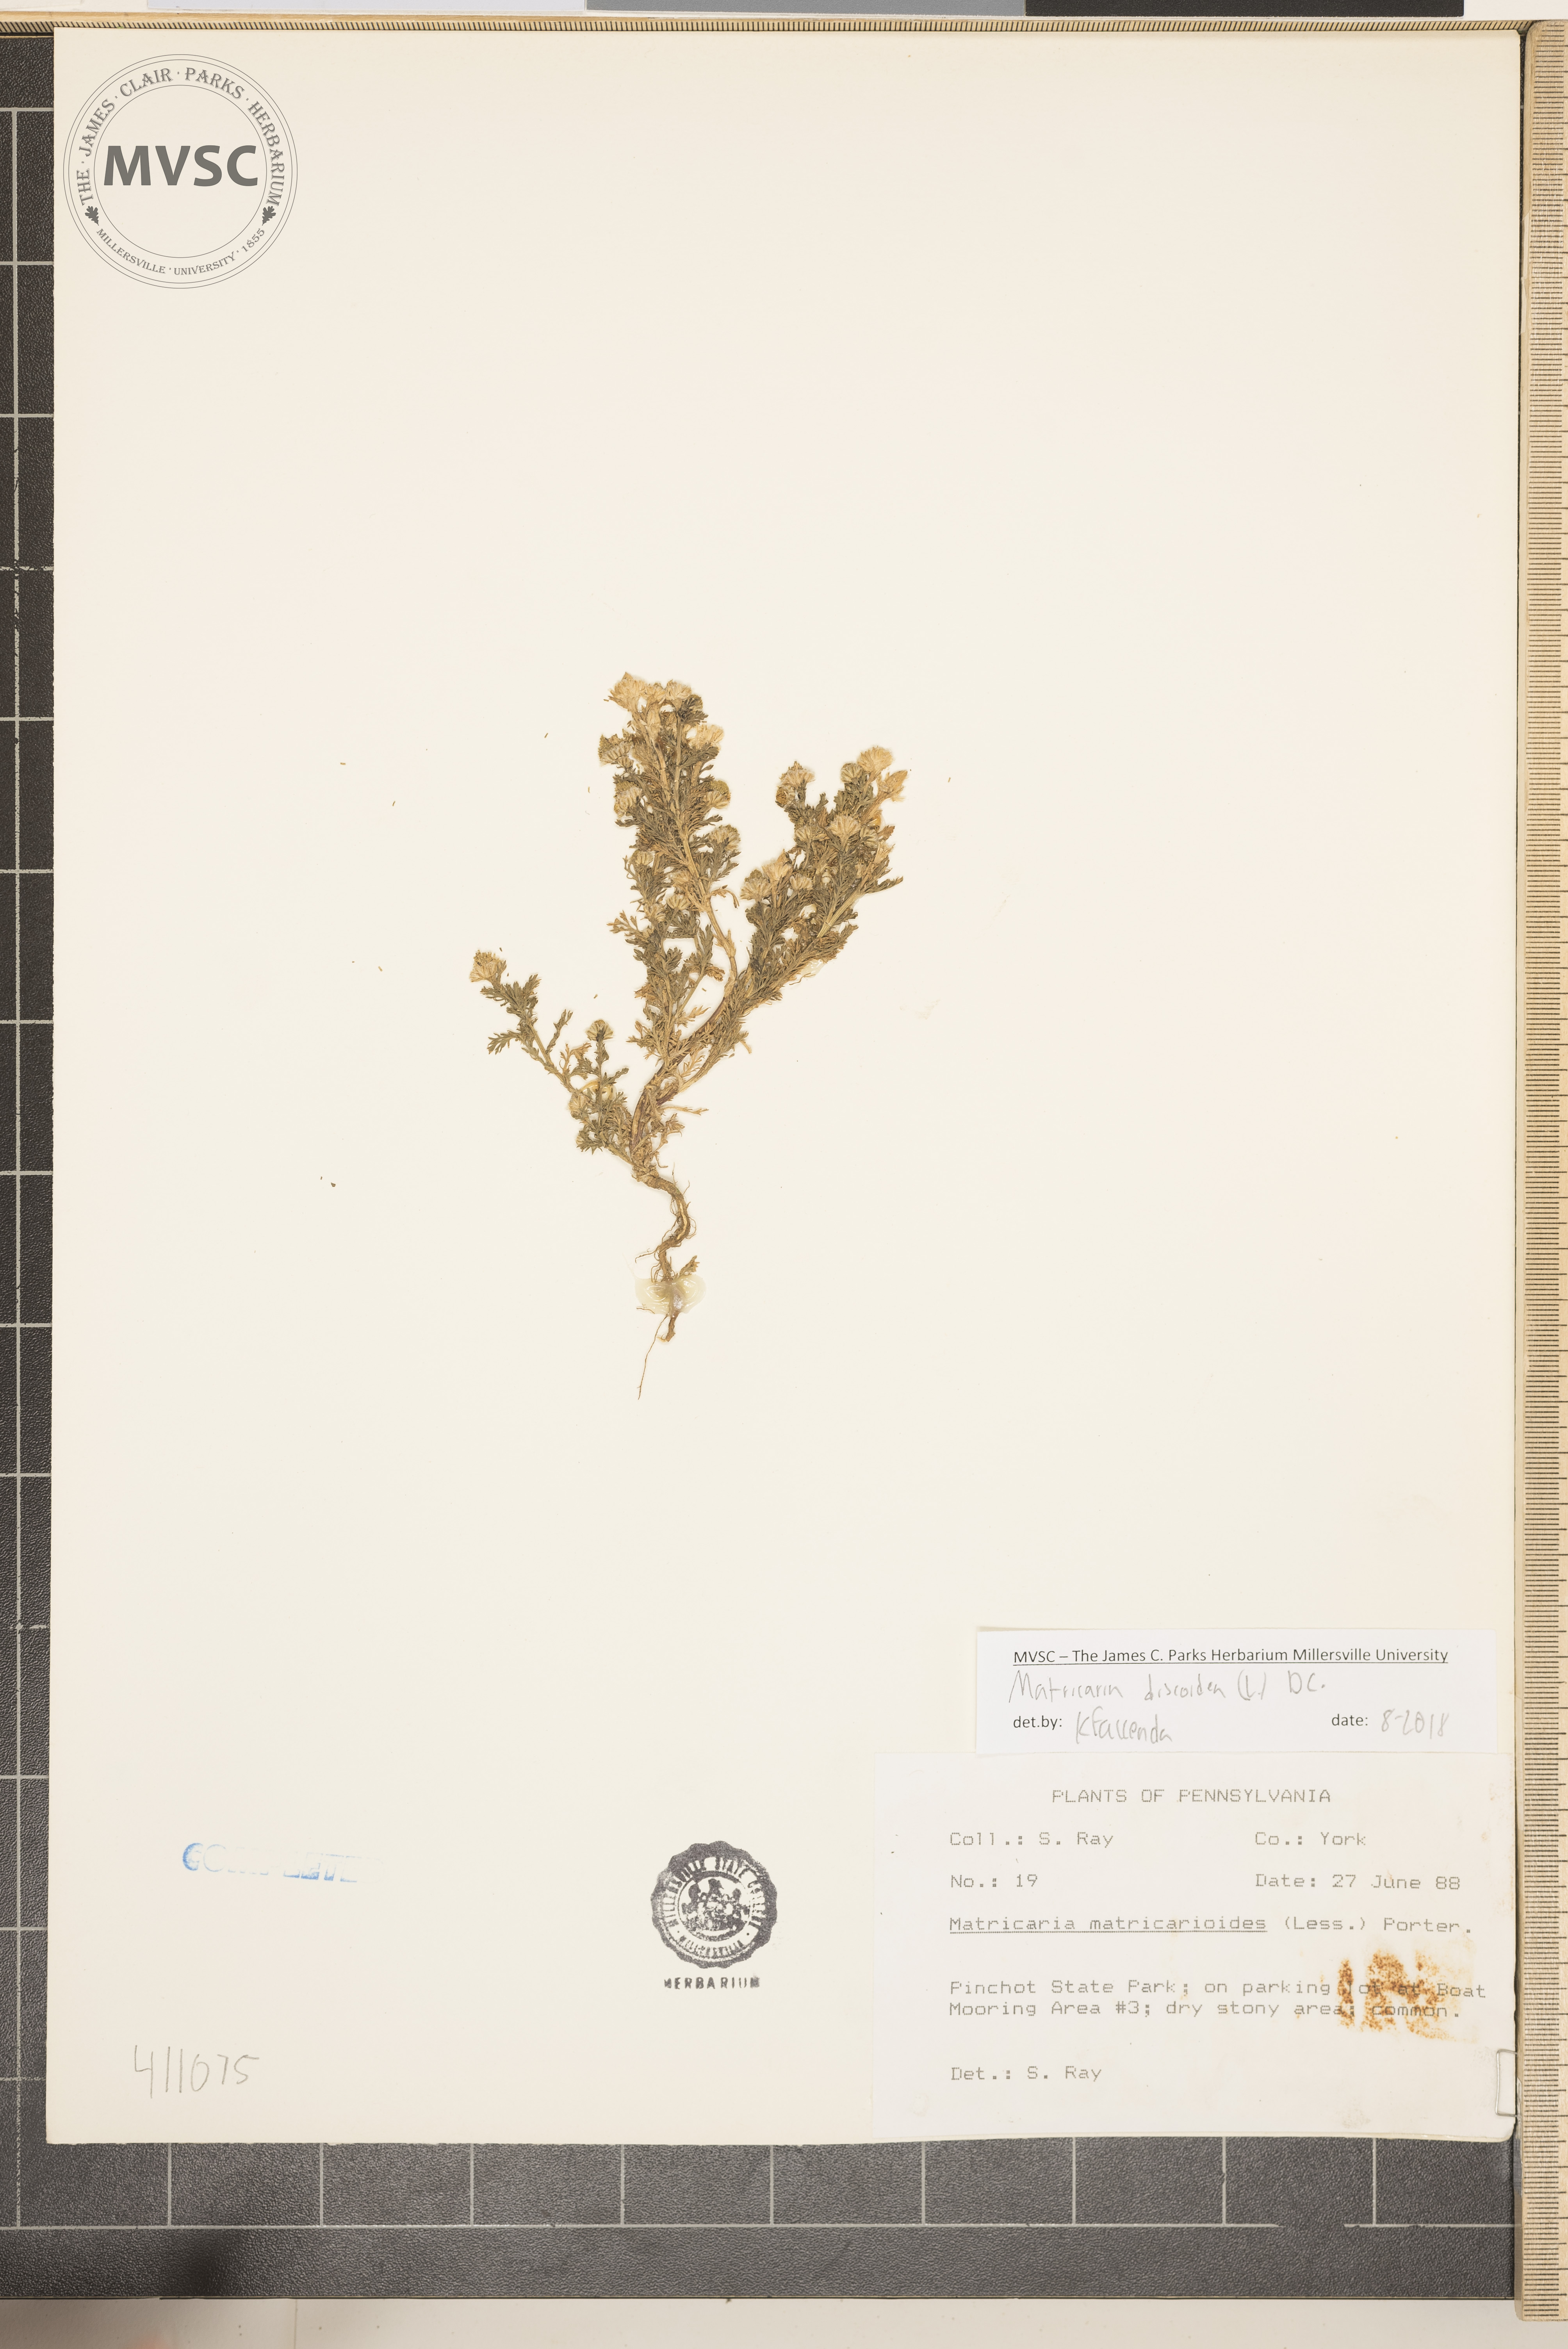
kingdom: Plantae
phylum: Tracheophyta
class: Magnoliopsida
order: Asterales
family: Asteraceae
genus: Matricaria
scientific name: Matricaria discoidea
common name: Disc mayweed
